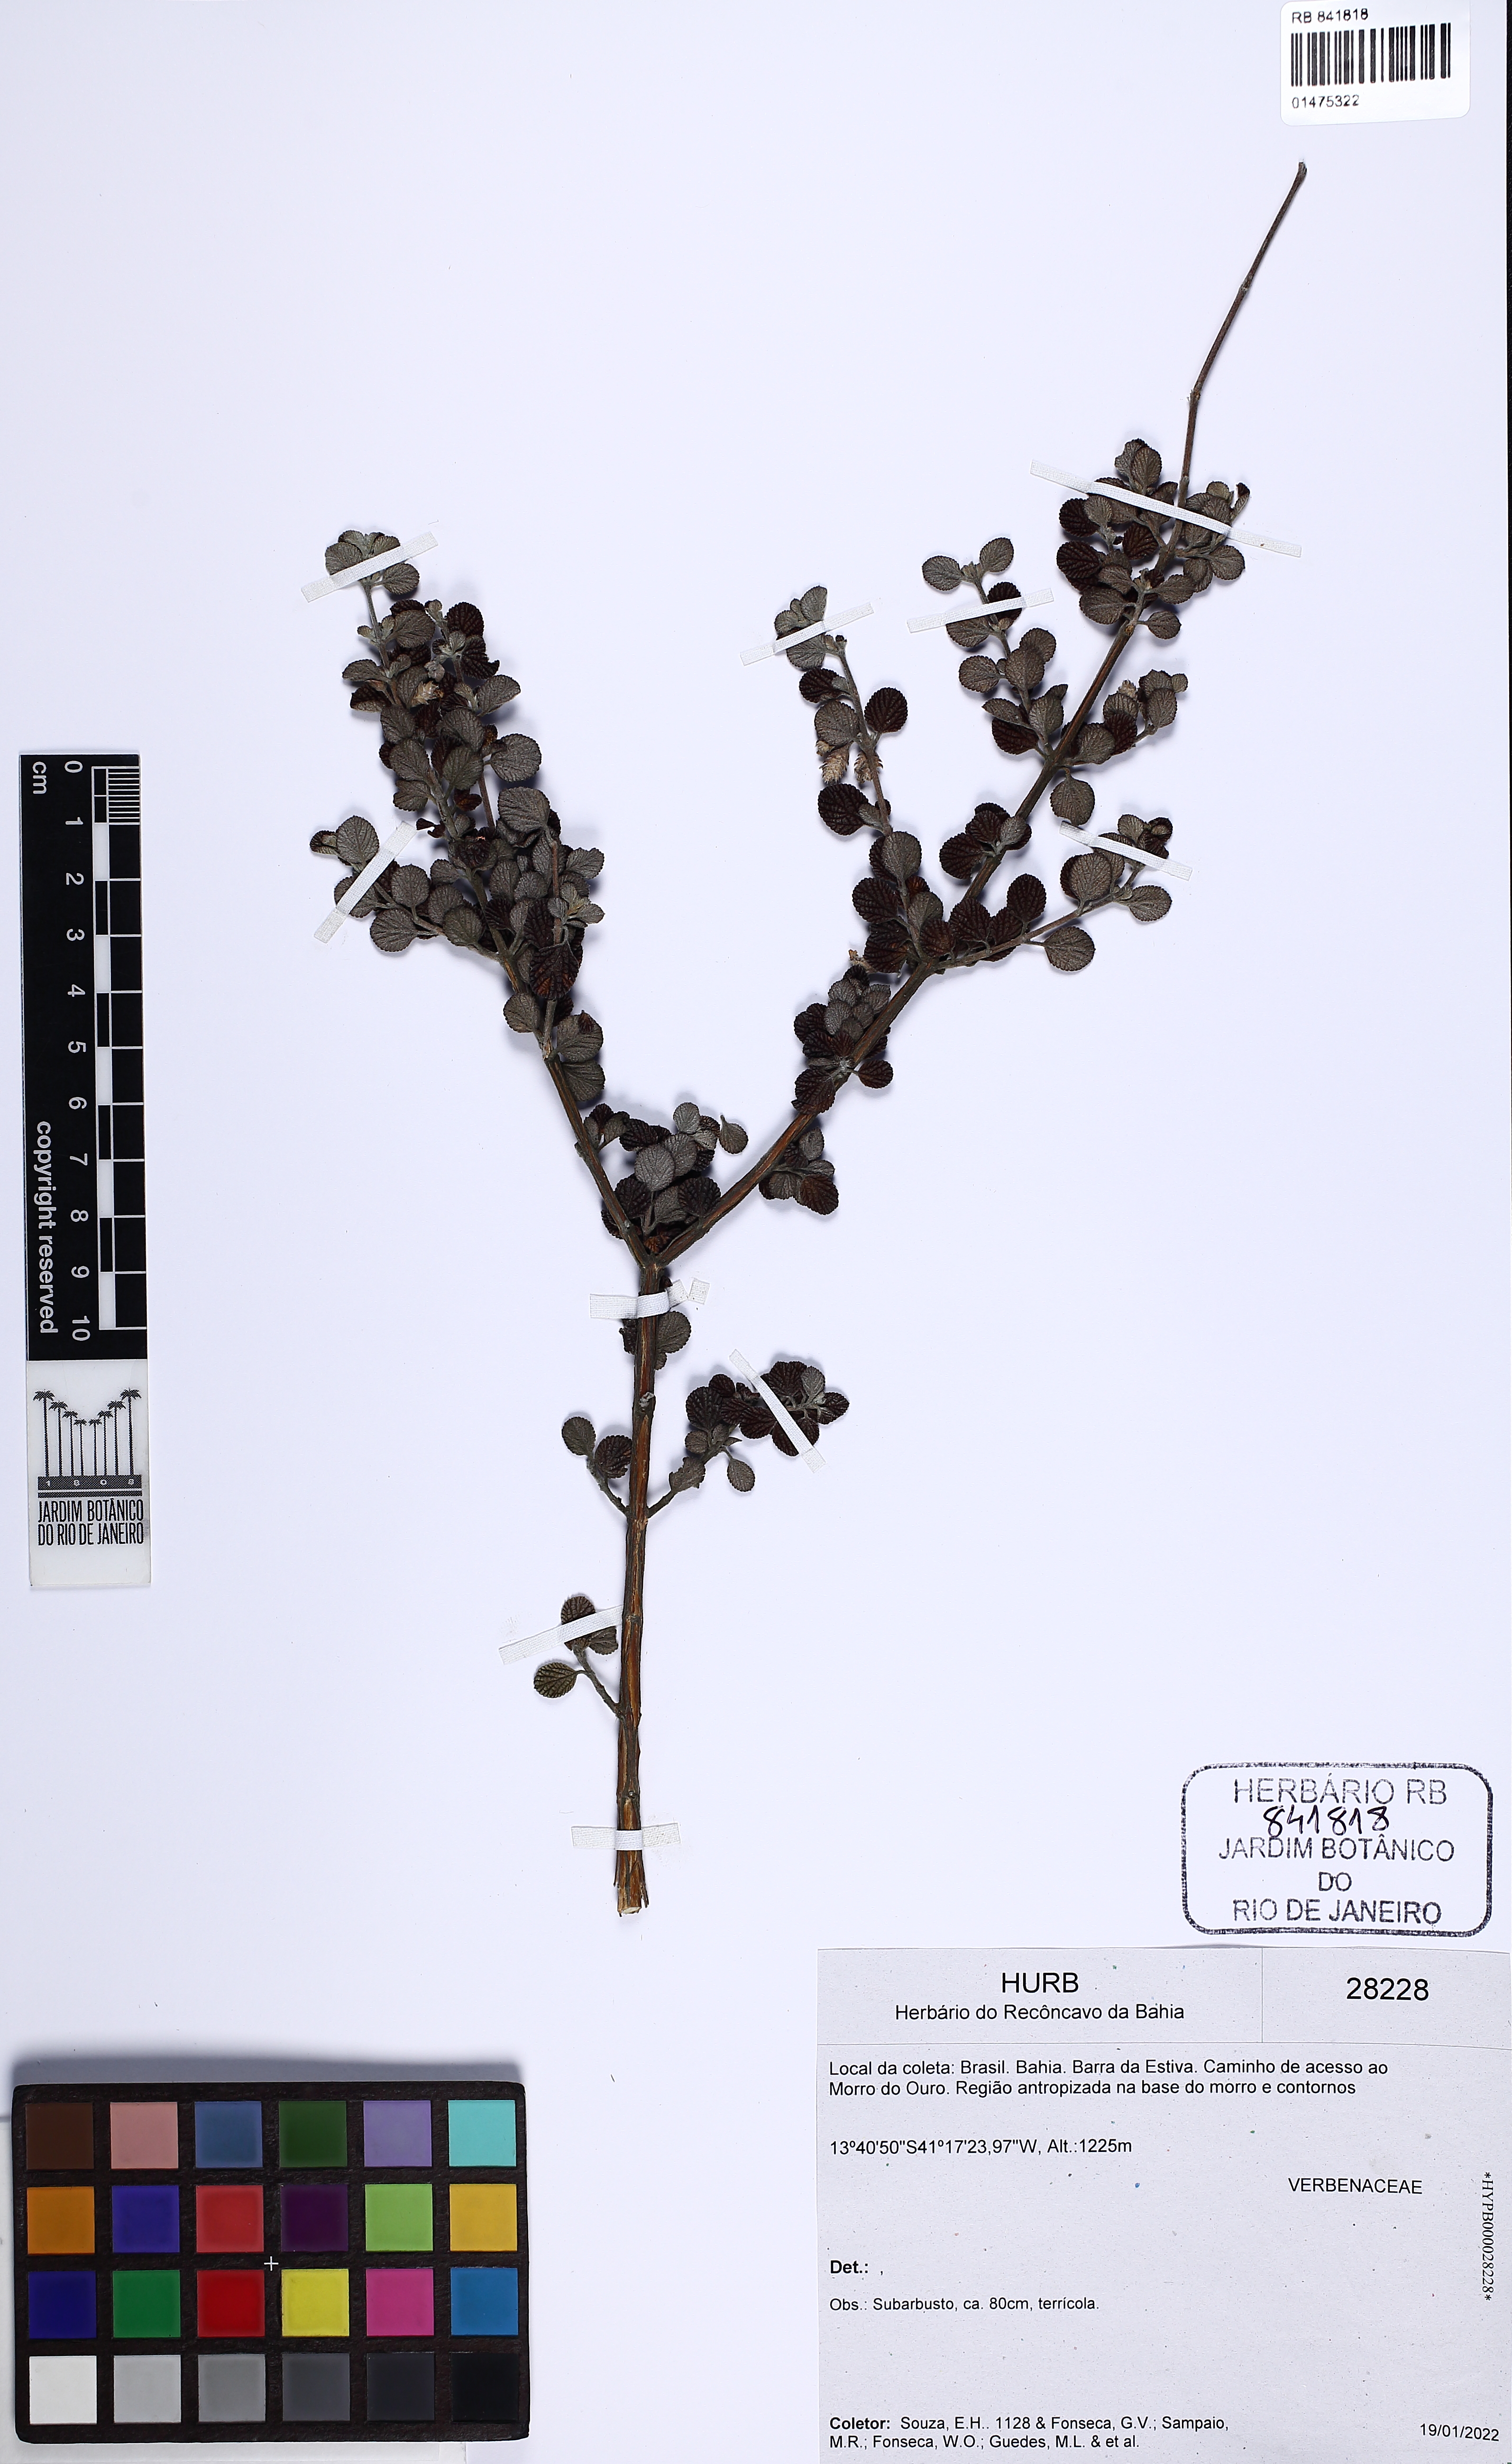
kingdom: Plantae
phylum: Tracheophyta
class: Magnoliopsida
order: Lamiales
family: Verbenaceae
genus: Lippia
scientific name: Lippia
